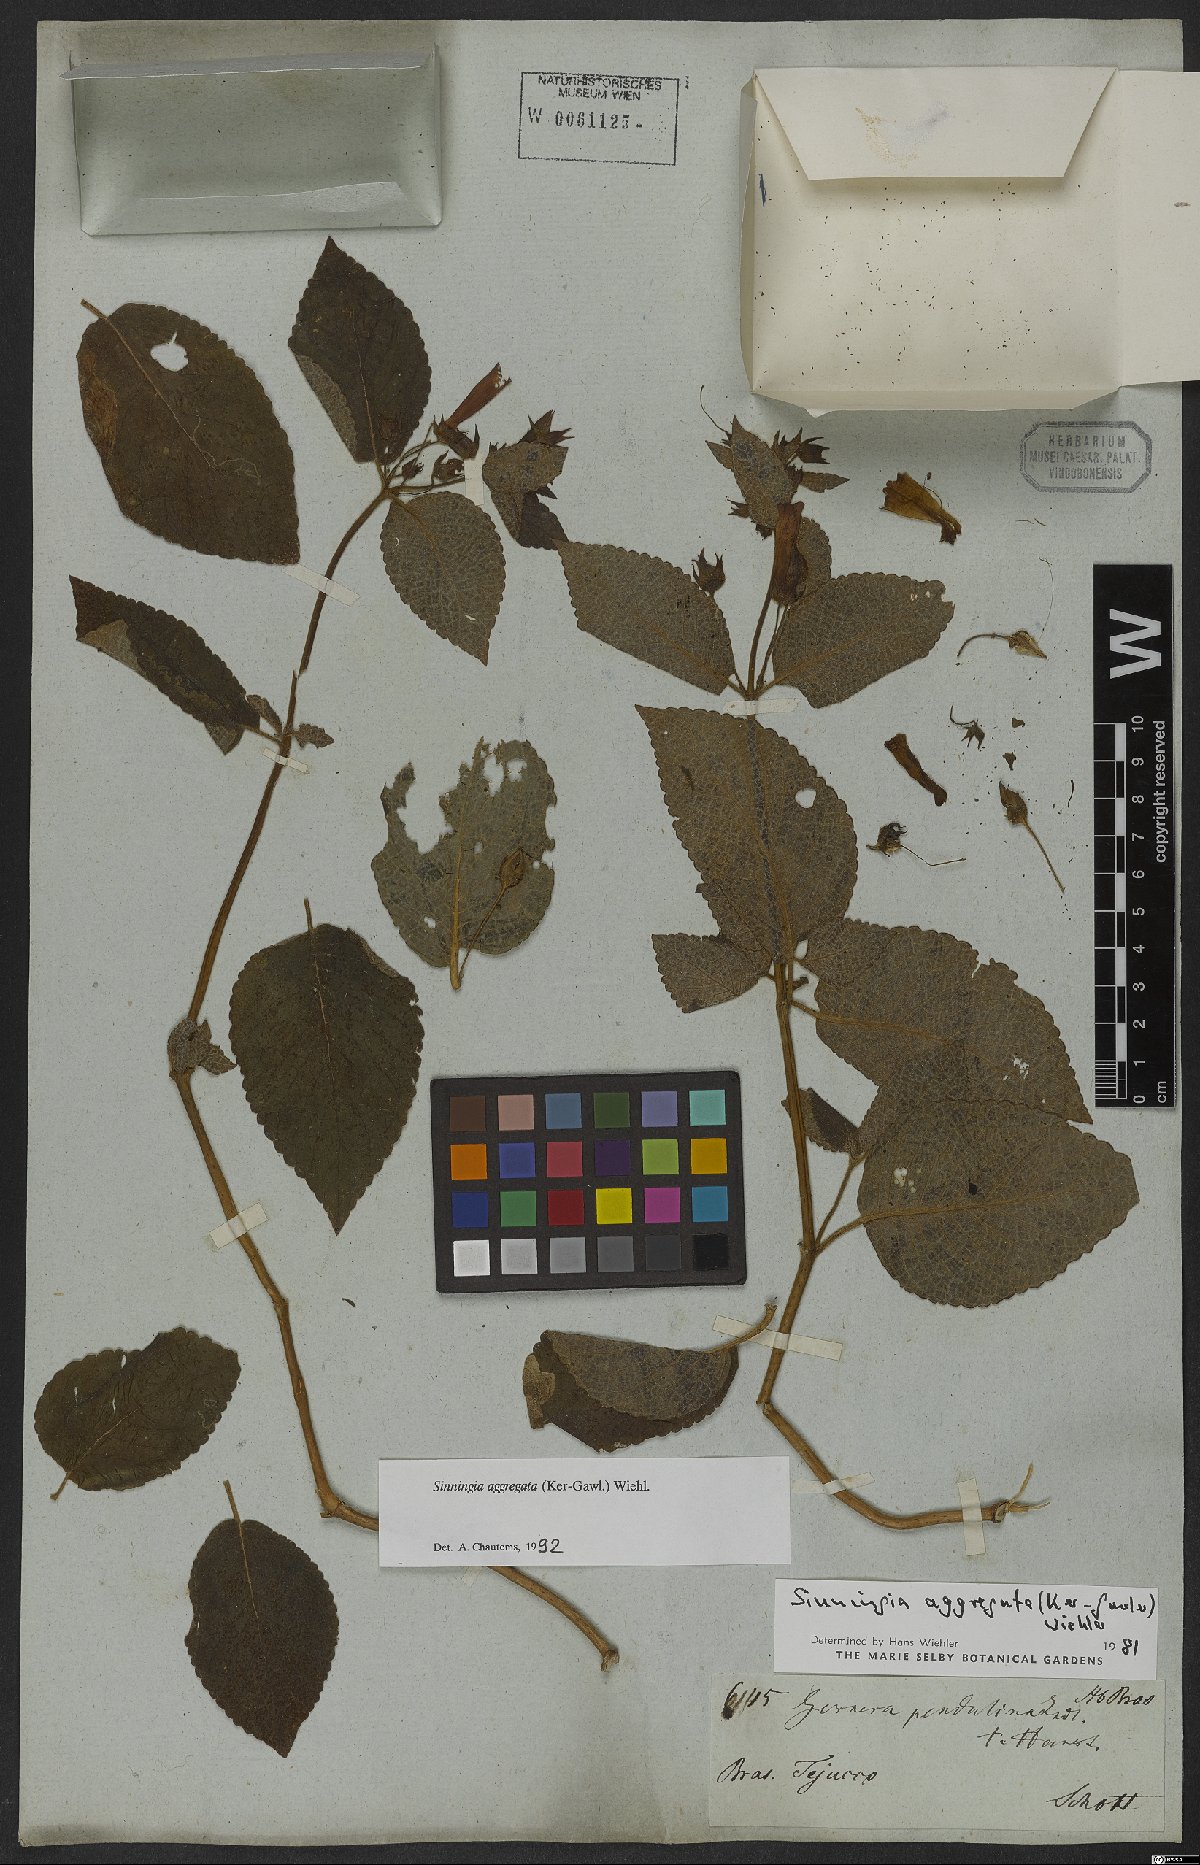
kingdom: Plantae
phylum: Tracheophyta
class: Magnoliopsida
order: Lamiales
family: Gesneriaceae
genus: Sinningia
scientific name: Sinningia aggregata
